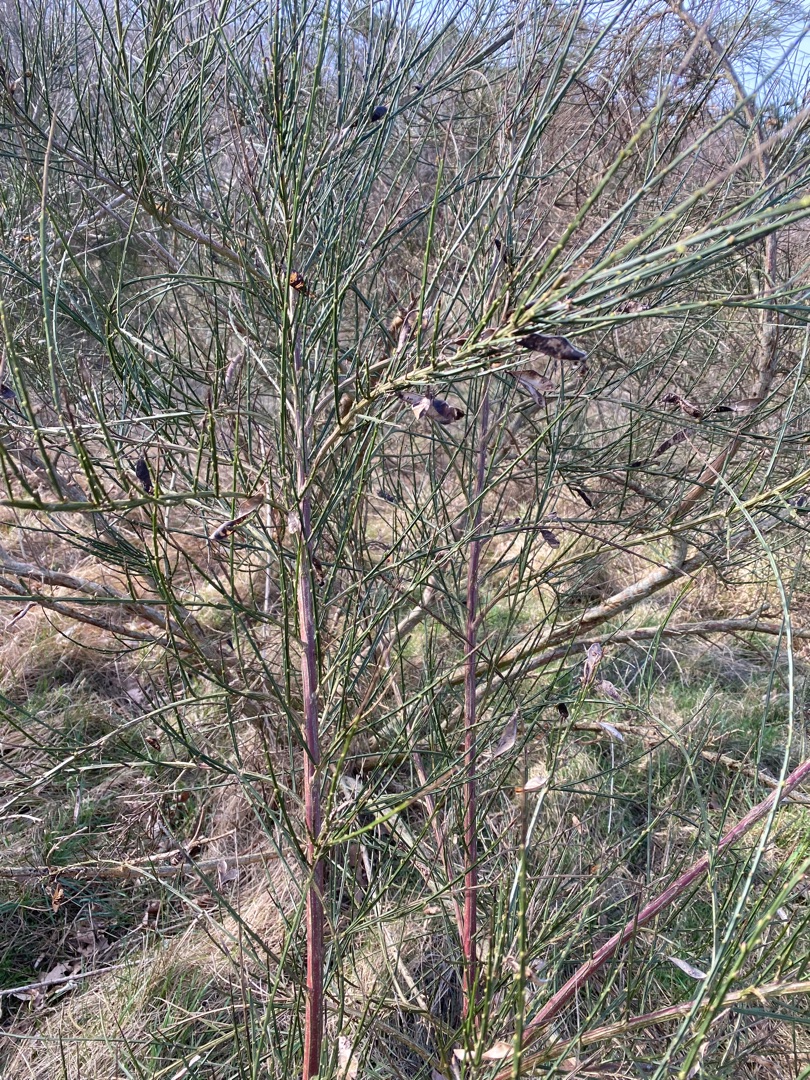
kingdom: Plantae
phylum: Tracheophyta
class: Magnoliopsida
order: Fabales
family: Fabaceae
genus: Cytisus
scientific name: Cytisus scoparius
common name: Almindelig gyvel
